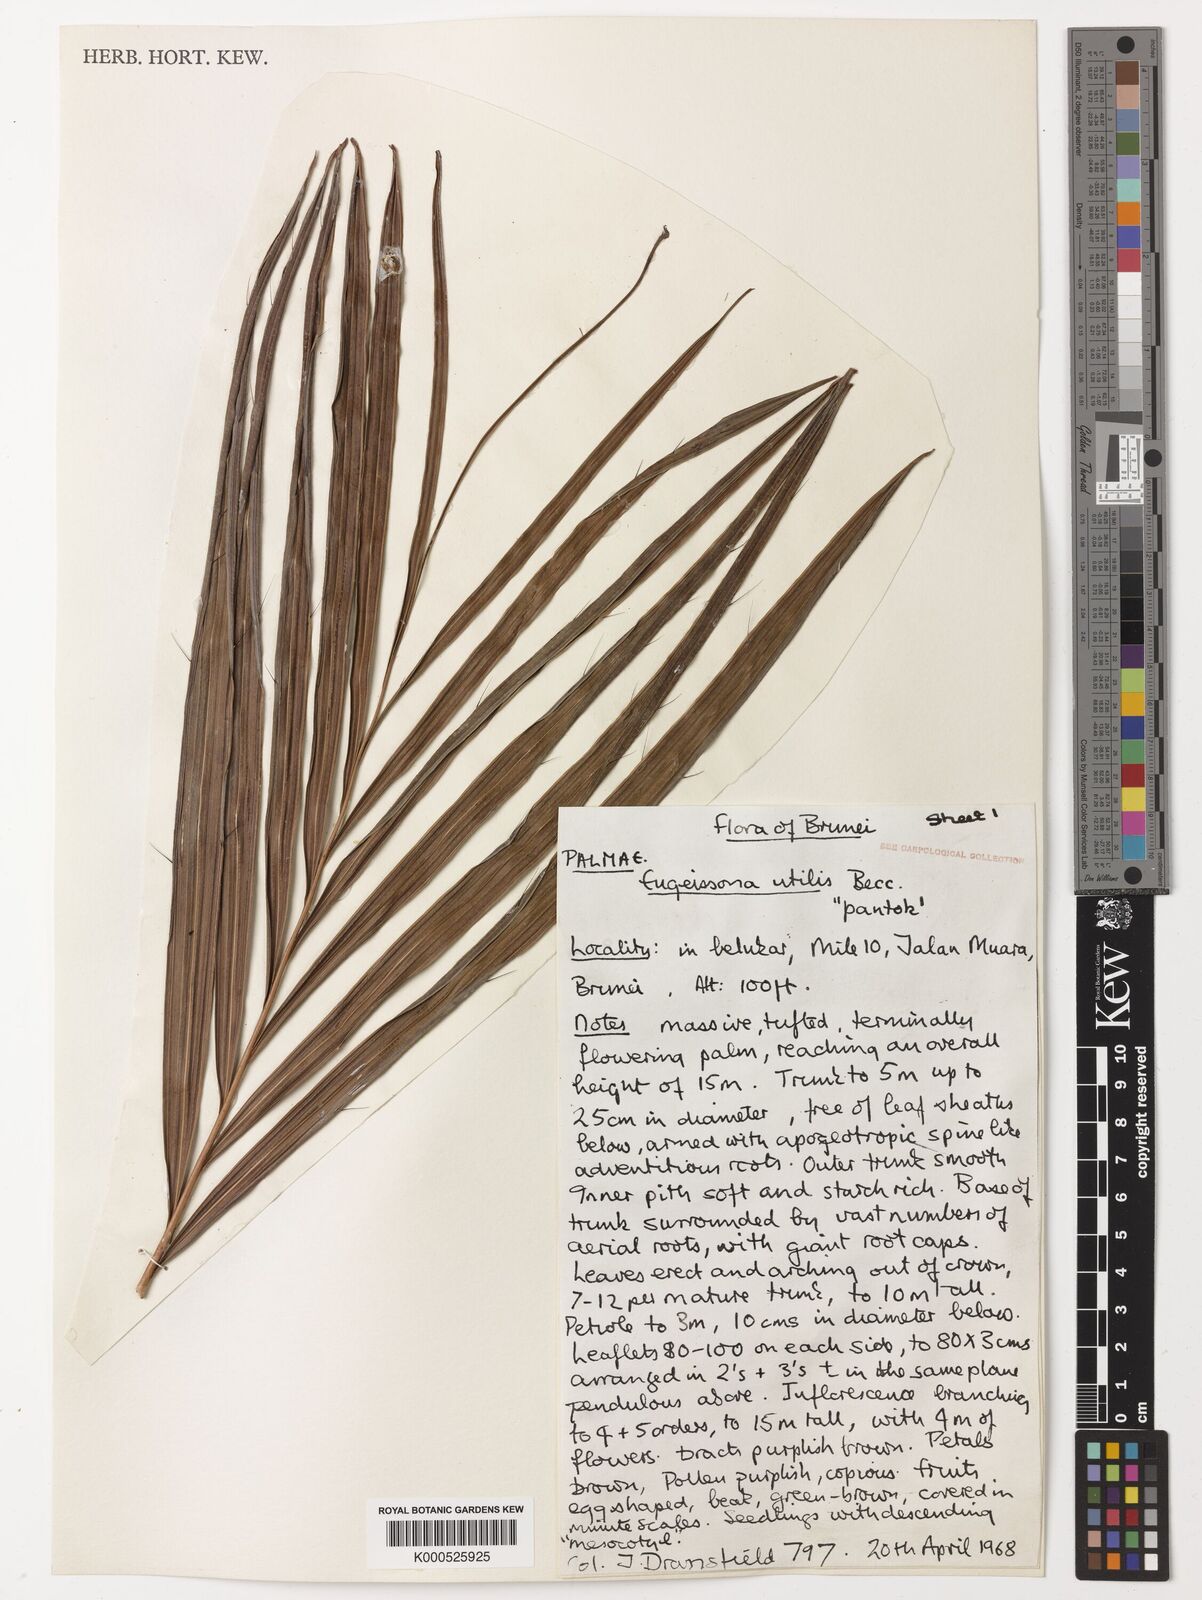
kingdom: Plantae
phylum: Tracheophyta
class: Liliopsida
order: Arecales
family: Arecaceae
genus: Eugeissona
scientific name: Eugeissona utilis
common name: Wild bornean sago palm
